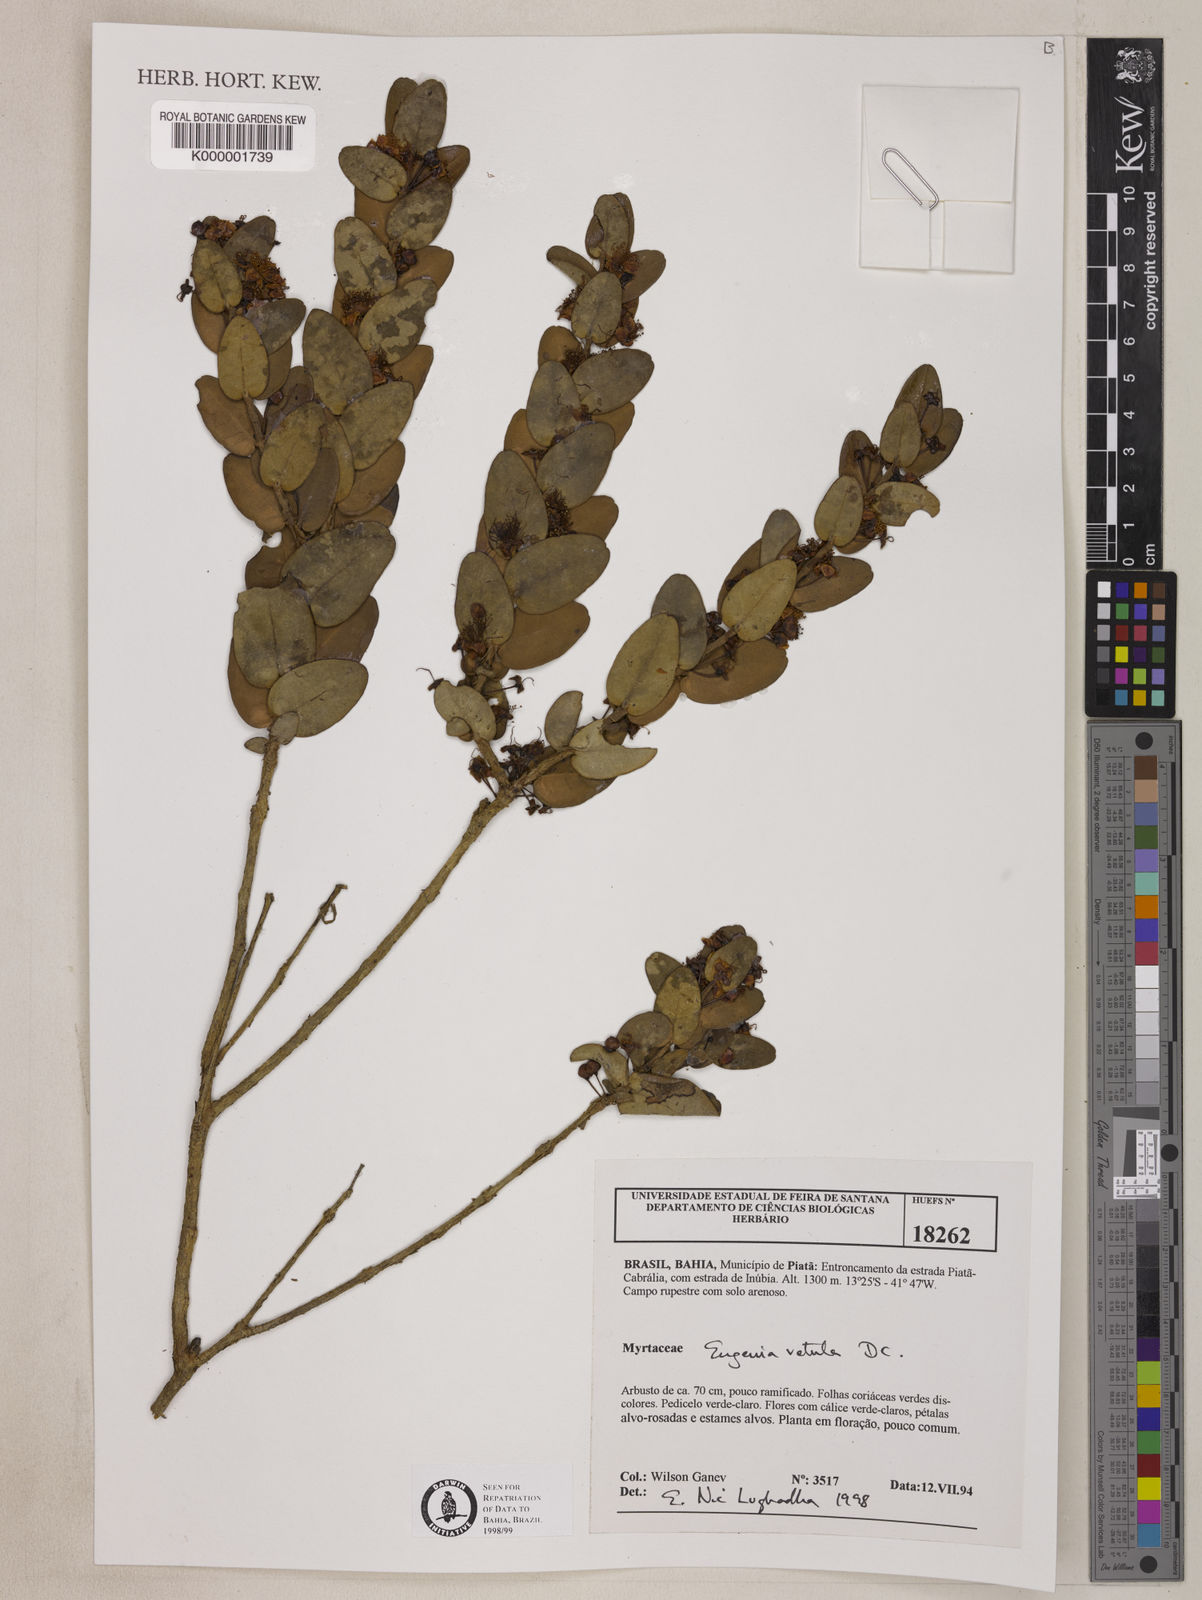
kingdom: Plantae
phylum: Tracheophyta
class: Magnoliopsida
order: Myrtales
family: Myrtaceae
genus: Eugenia
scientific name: Eugenia vetula
